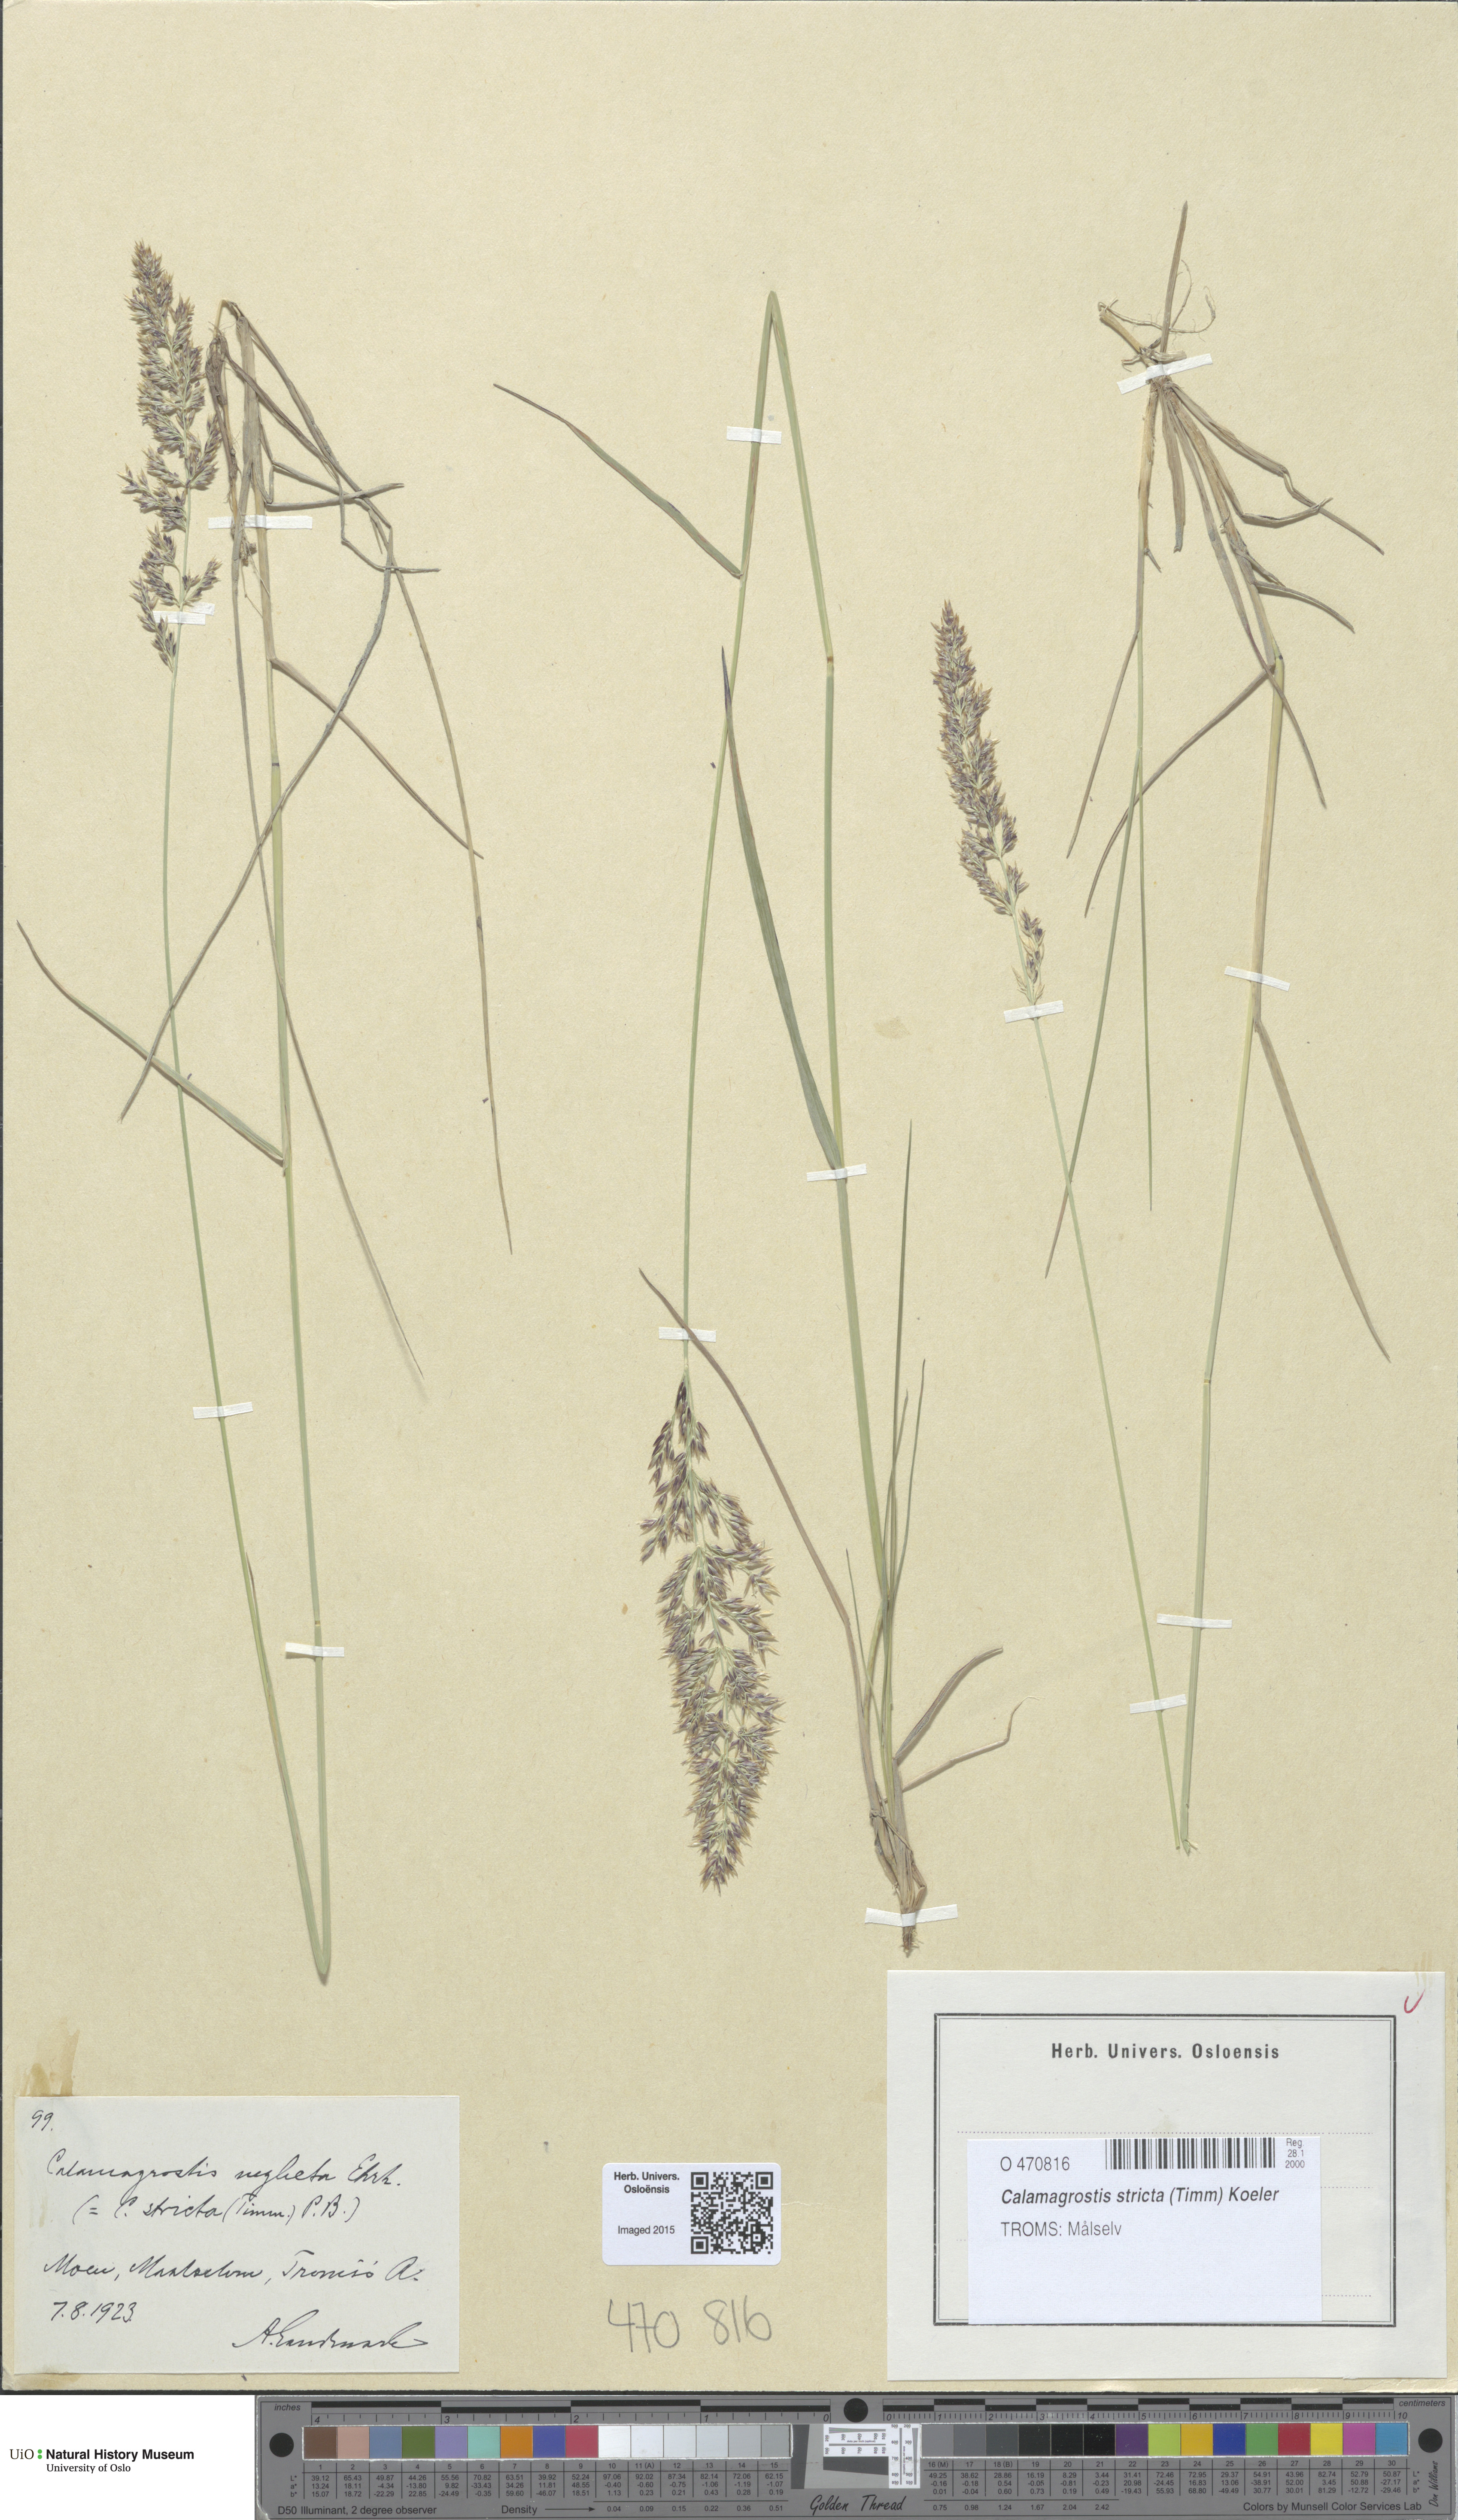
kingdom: Plantae
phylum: Tracheophyta
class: Liliopsida
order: Poales
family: Poaceae
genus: Achnatherum
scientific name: Achnatherum calamagrostis
